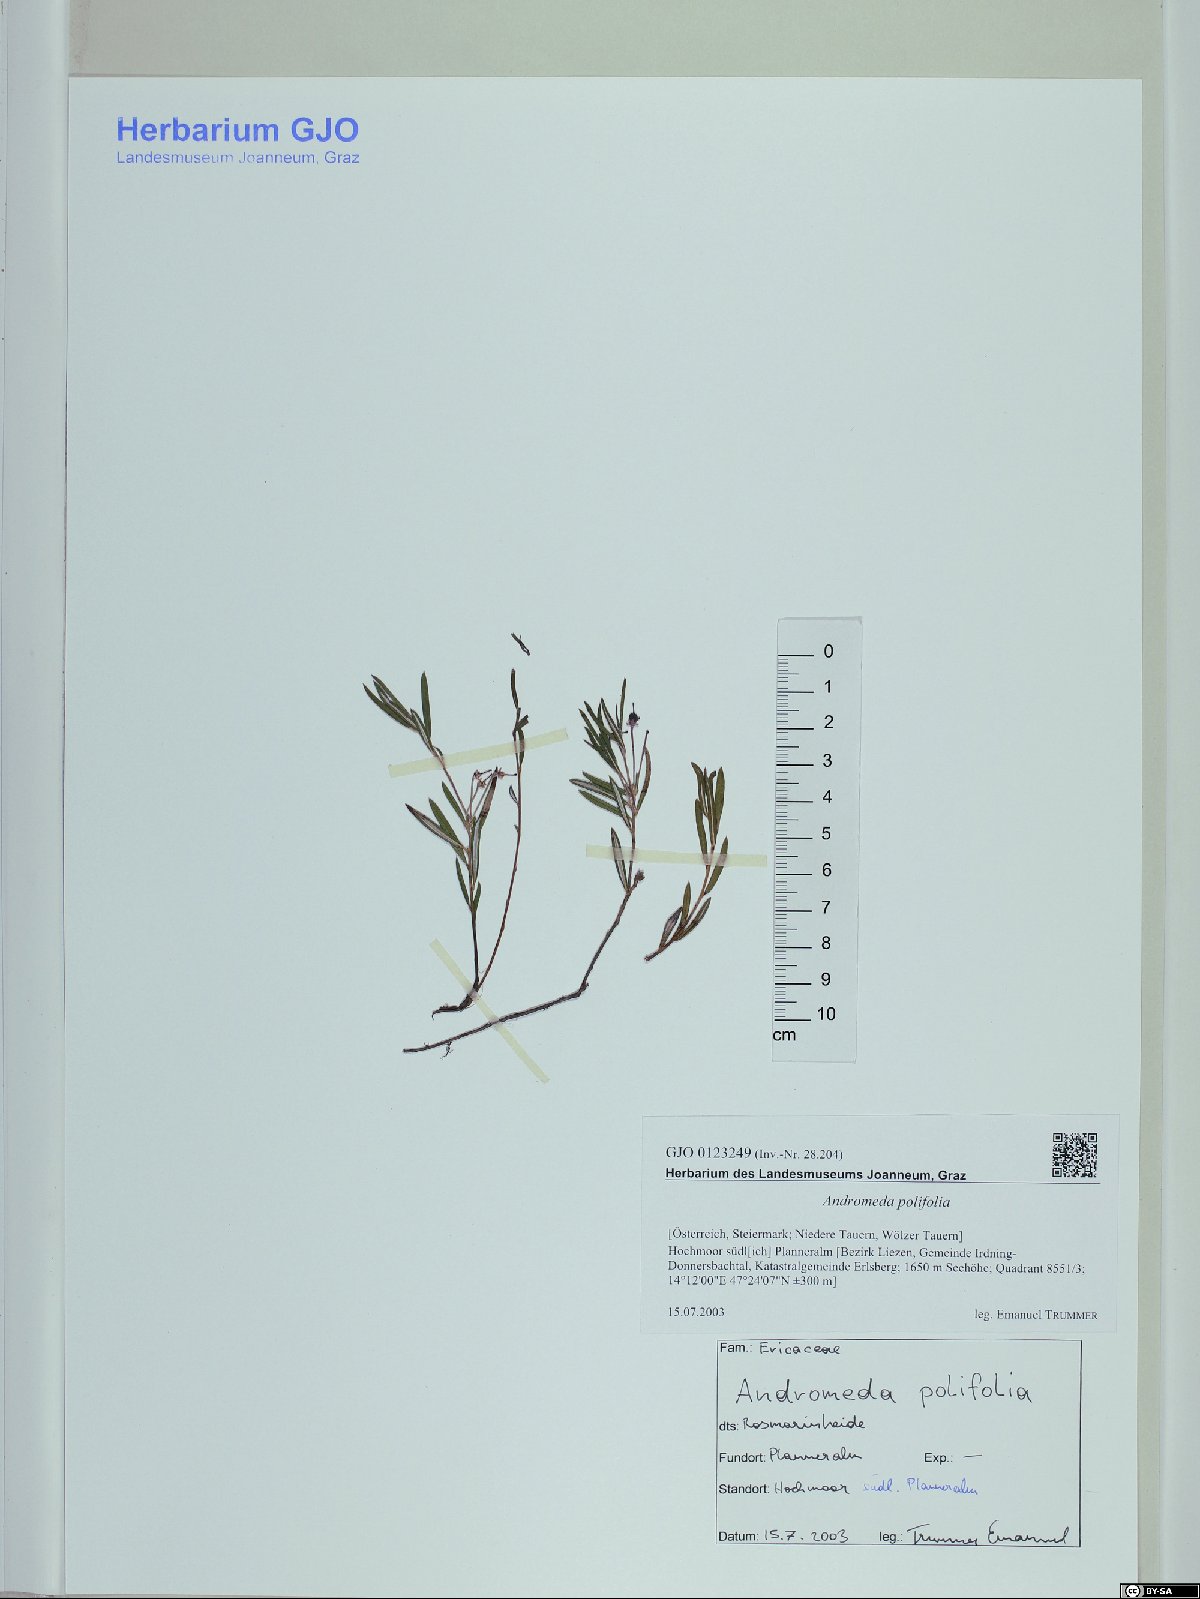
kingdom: Plantae
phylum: Tracheophyta
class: Magnoliopsida
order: Ericales
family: Ericaceae
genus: Andromeda
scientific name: Andromeda polifolia
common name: Bog-rosemary
